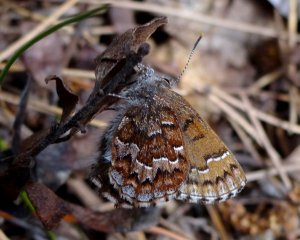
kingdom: Animalia
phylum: Arthropoda
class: Insecta
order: Lepidoptera
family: Lycaenidae
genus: Incisalia
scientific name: Incisalia niphon
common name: Eastern Pine Elfin
